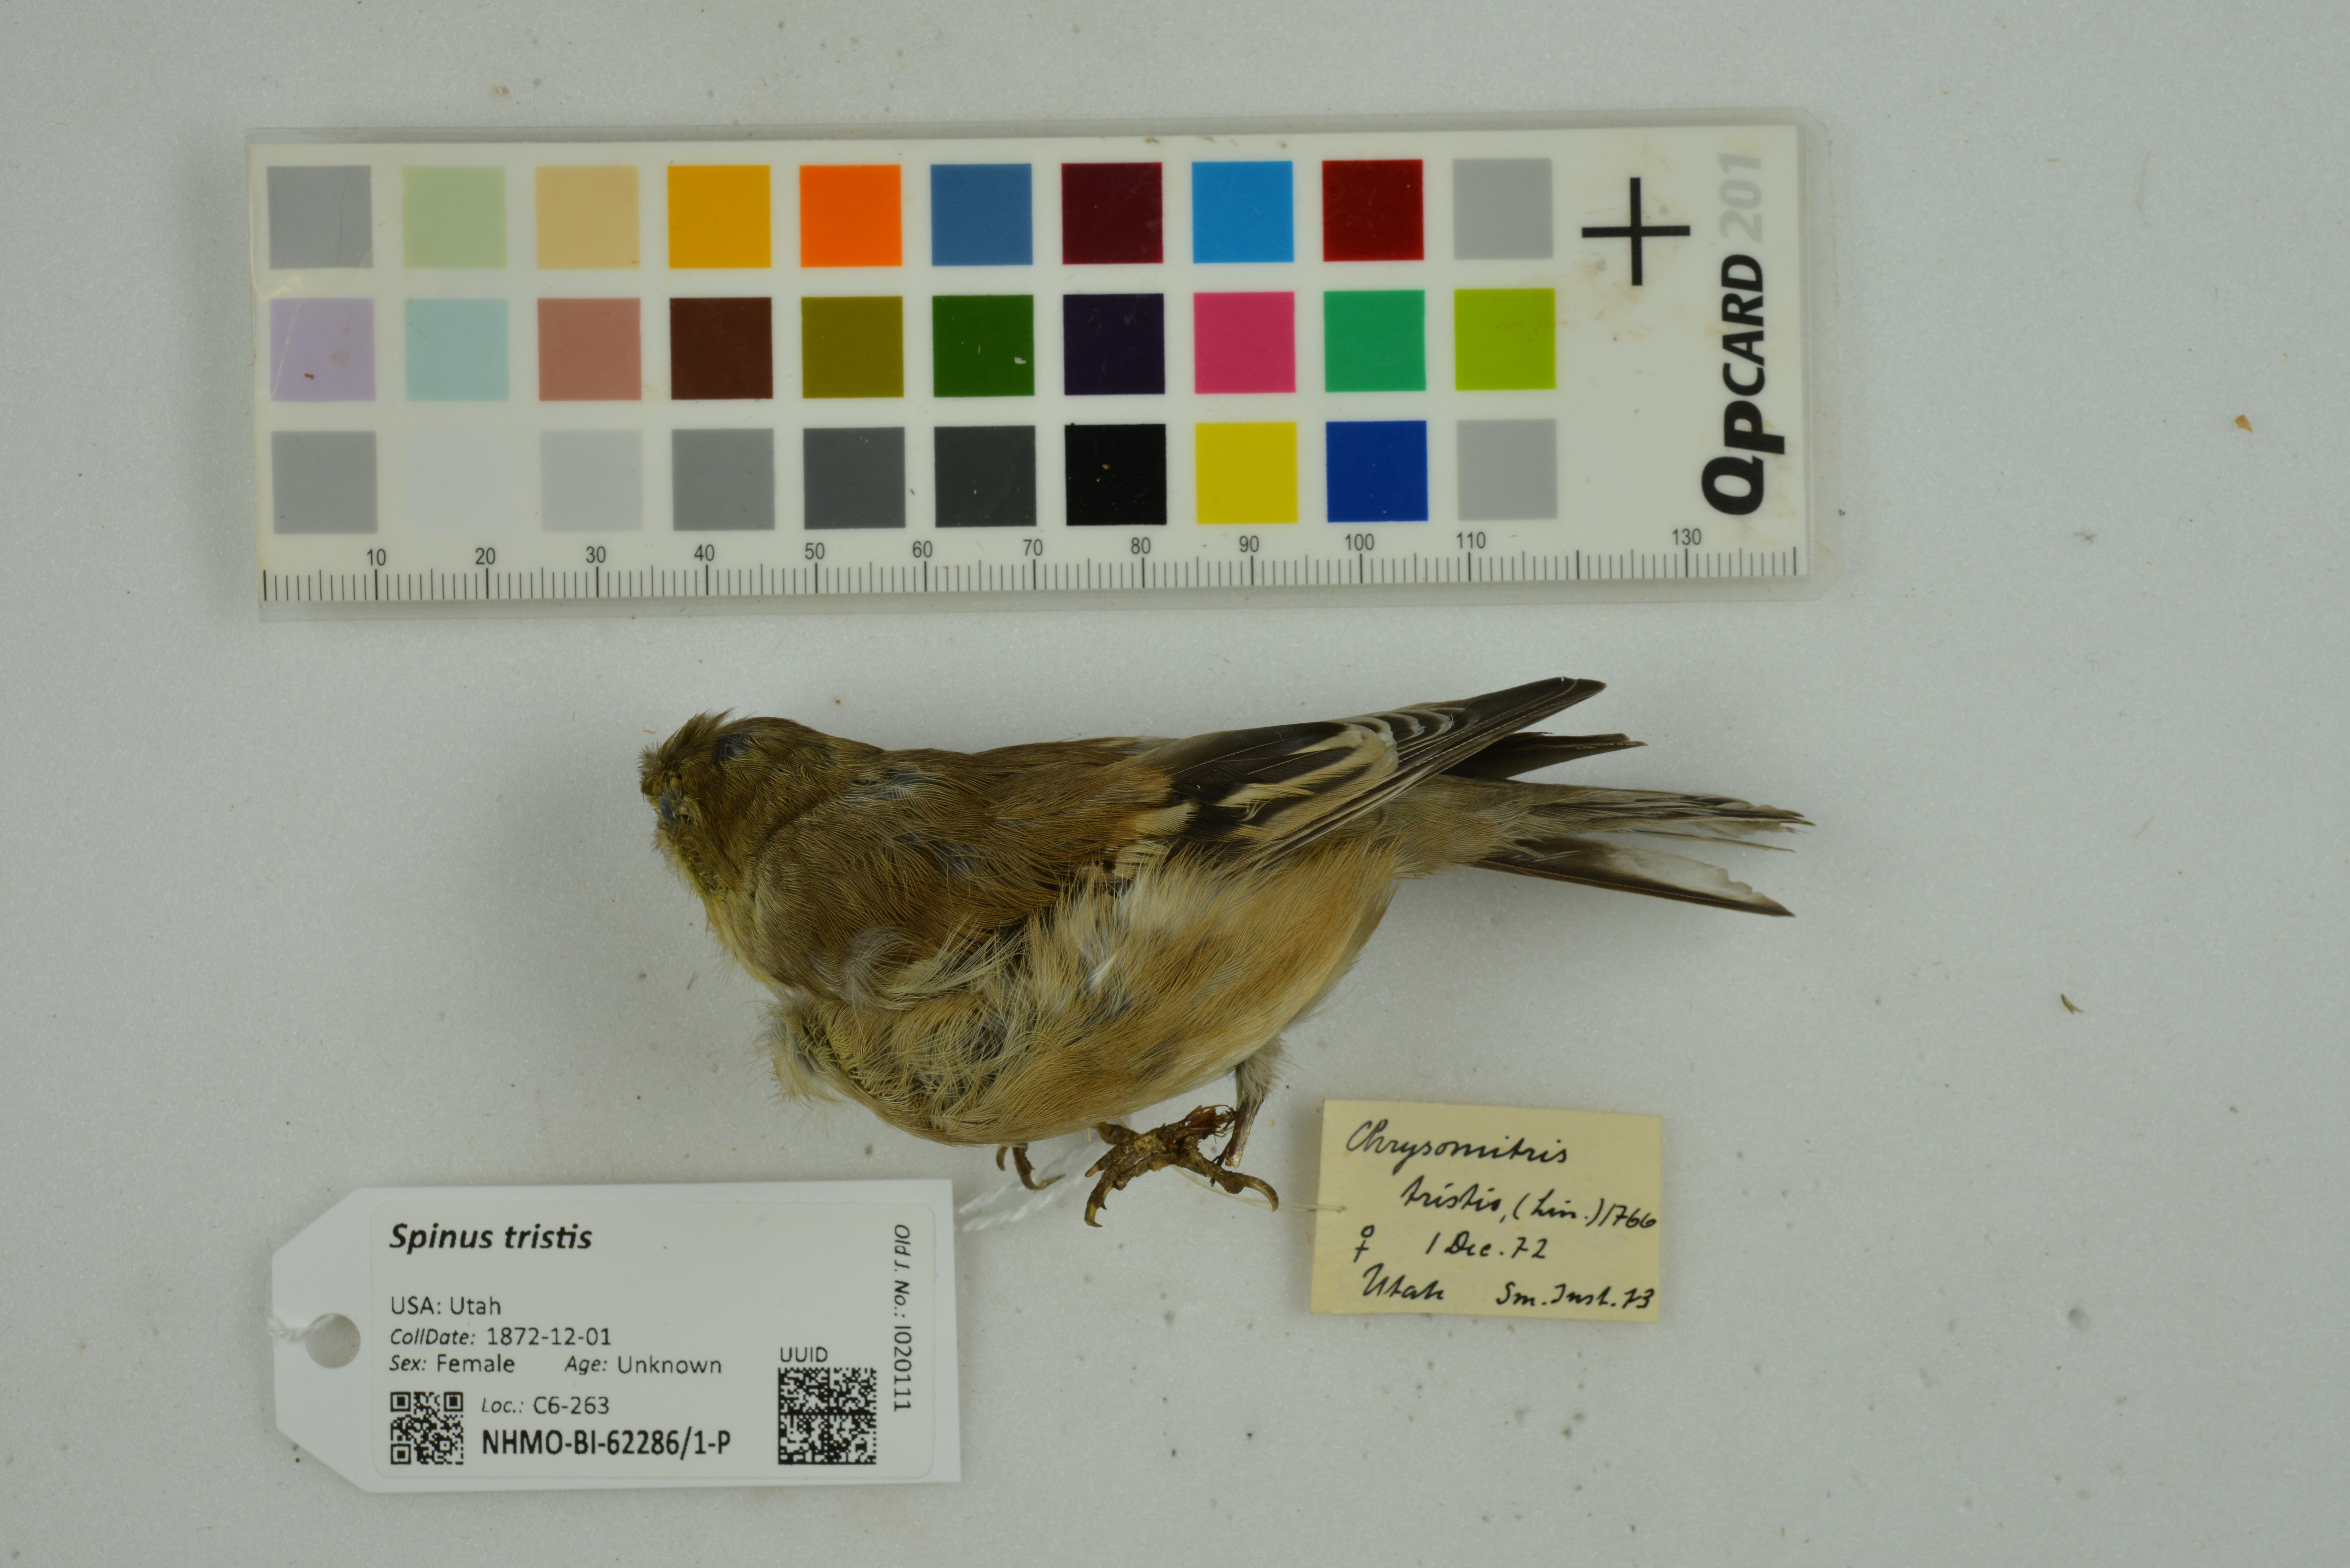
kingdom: Animalia
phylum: Chordata
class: Aves
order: Passeriformes
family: Fringillidae
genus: Spinus
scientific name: Spinus tristis
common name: American goldfinch
